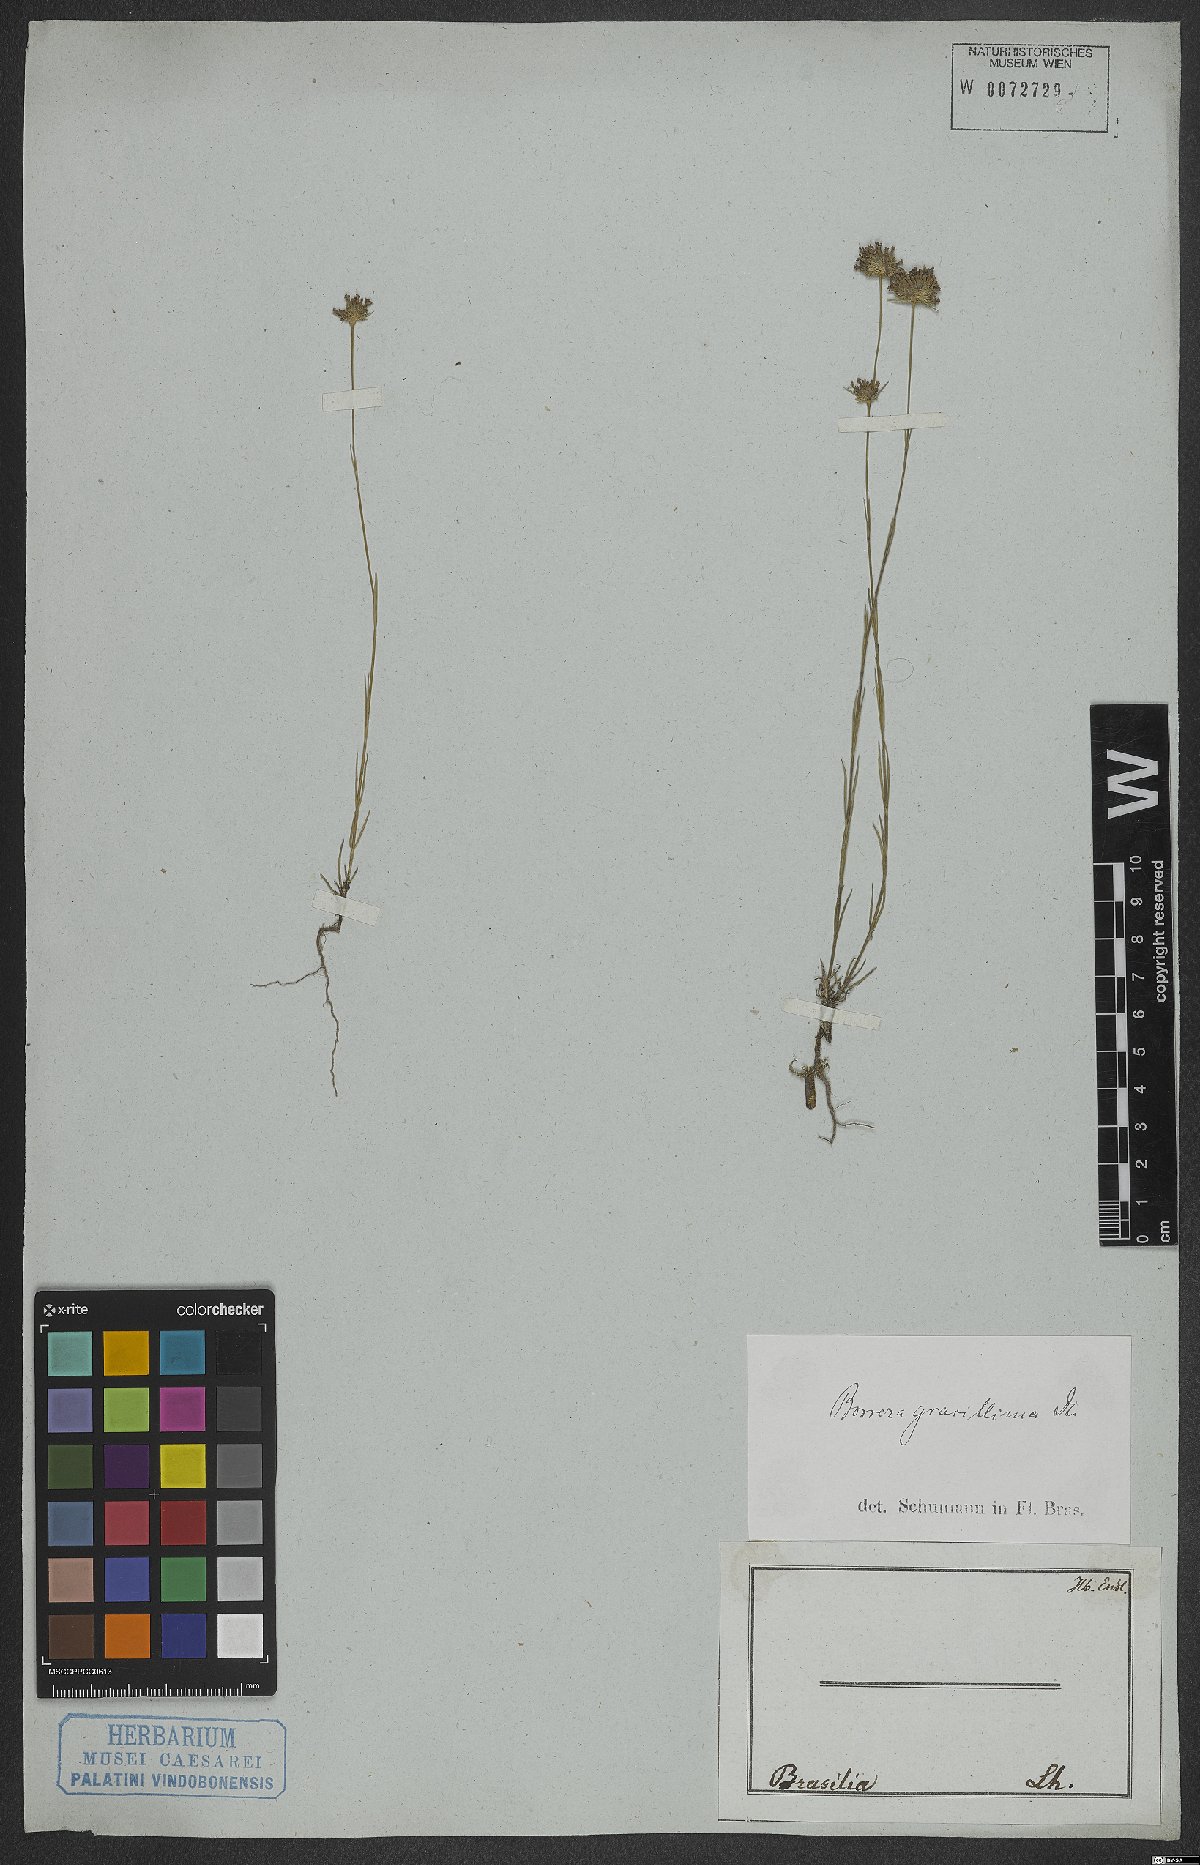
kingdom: Plantae
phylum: Tracheophyta
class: Magnoliopsida
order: Gentianales
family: Rubiaceae
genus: Spermacoce
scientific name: Spermacoce gracillima
